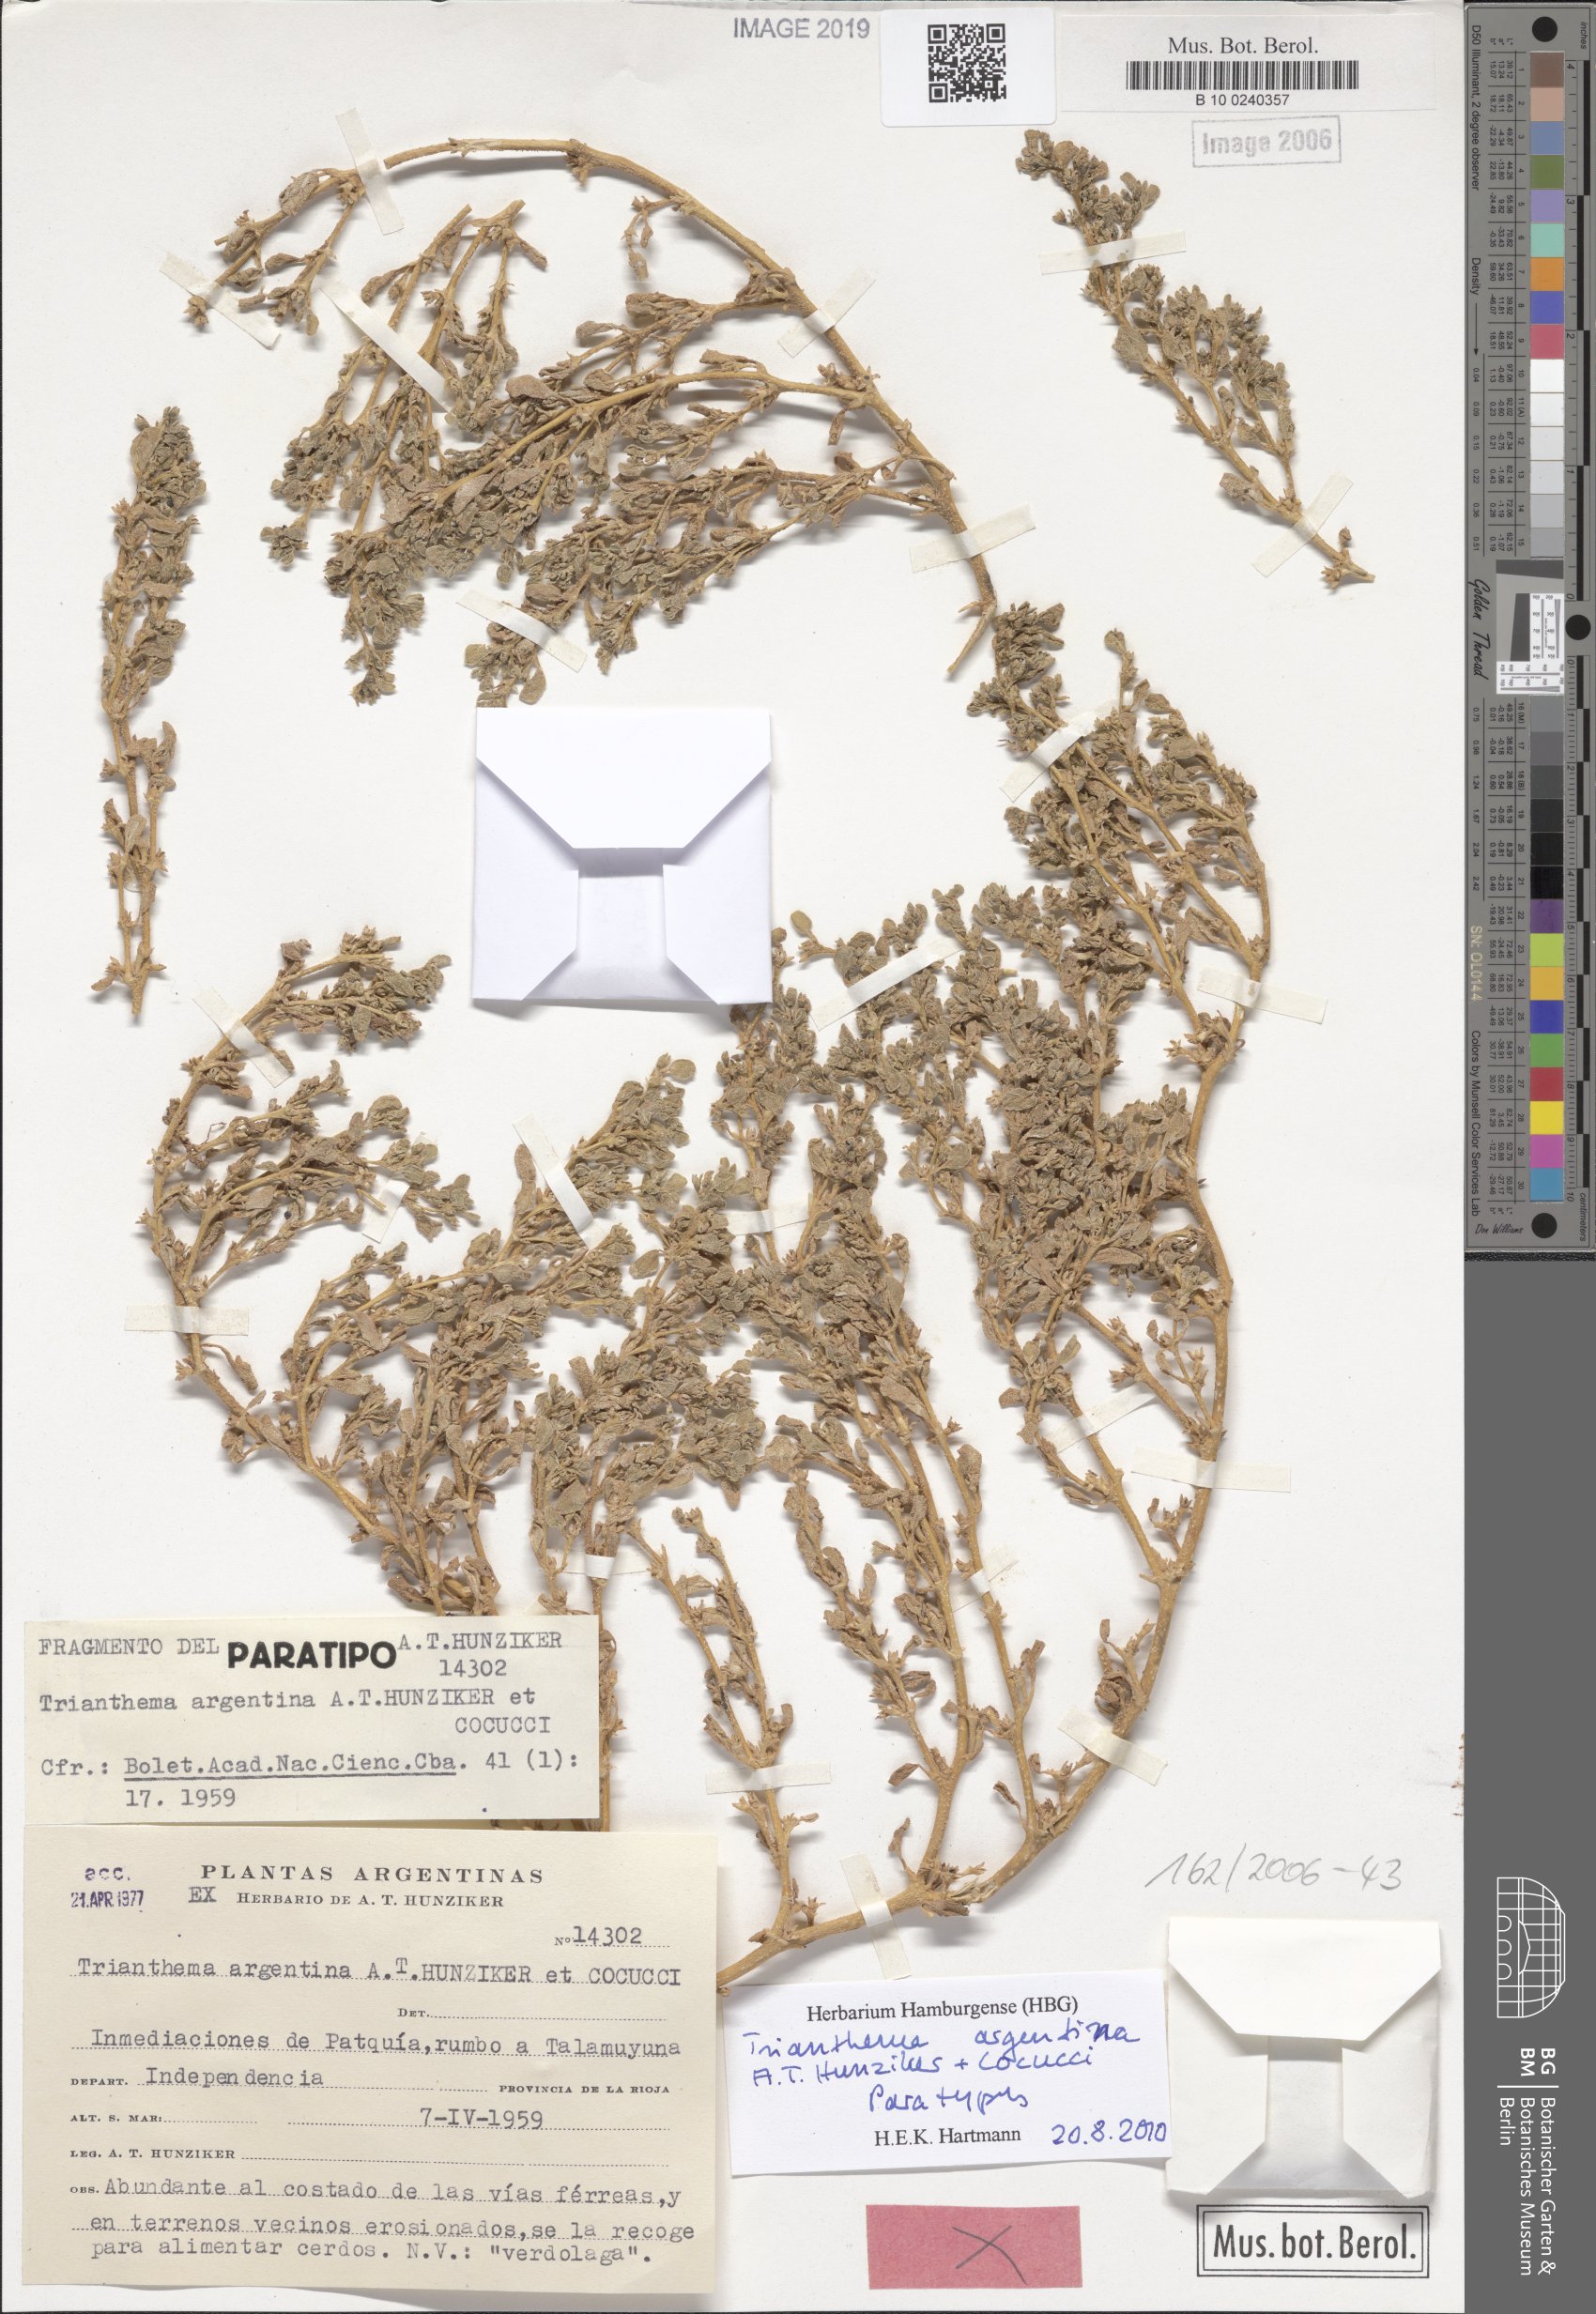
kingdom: Plantae
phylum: Tracheophyta
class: Magnoliopsida
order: Caryophyllales
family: Aizoaceae
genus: Trianthema
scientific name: Trianthema argentinum
